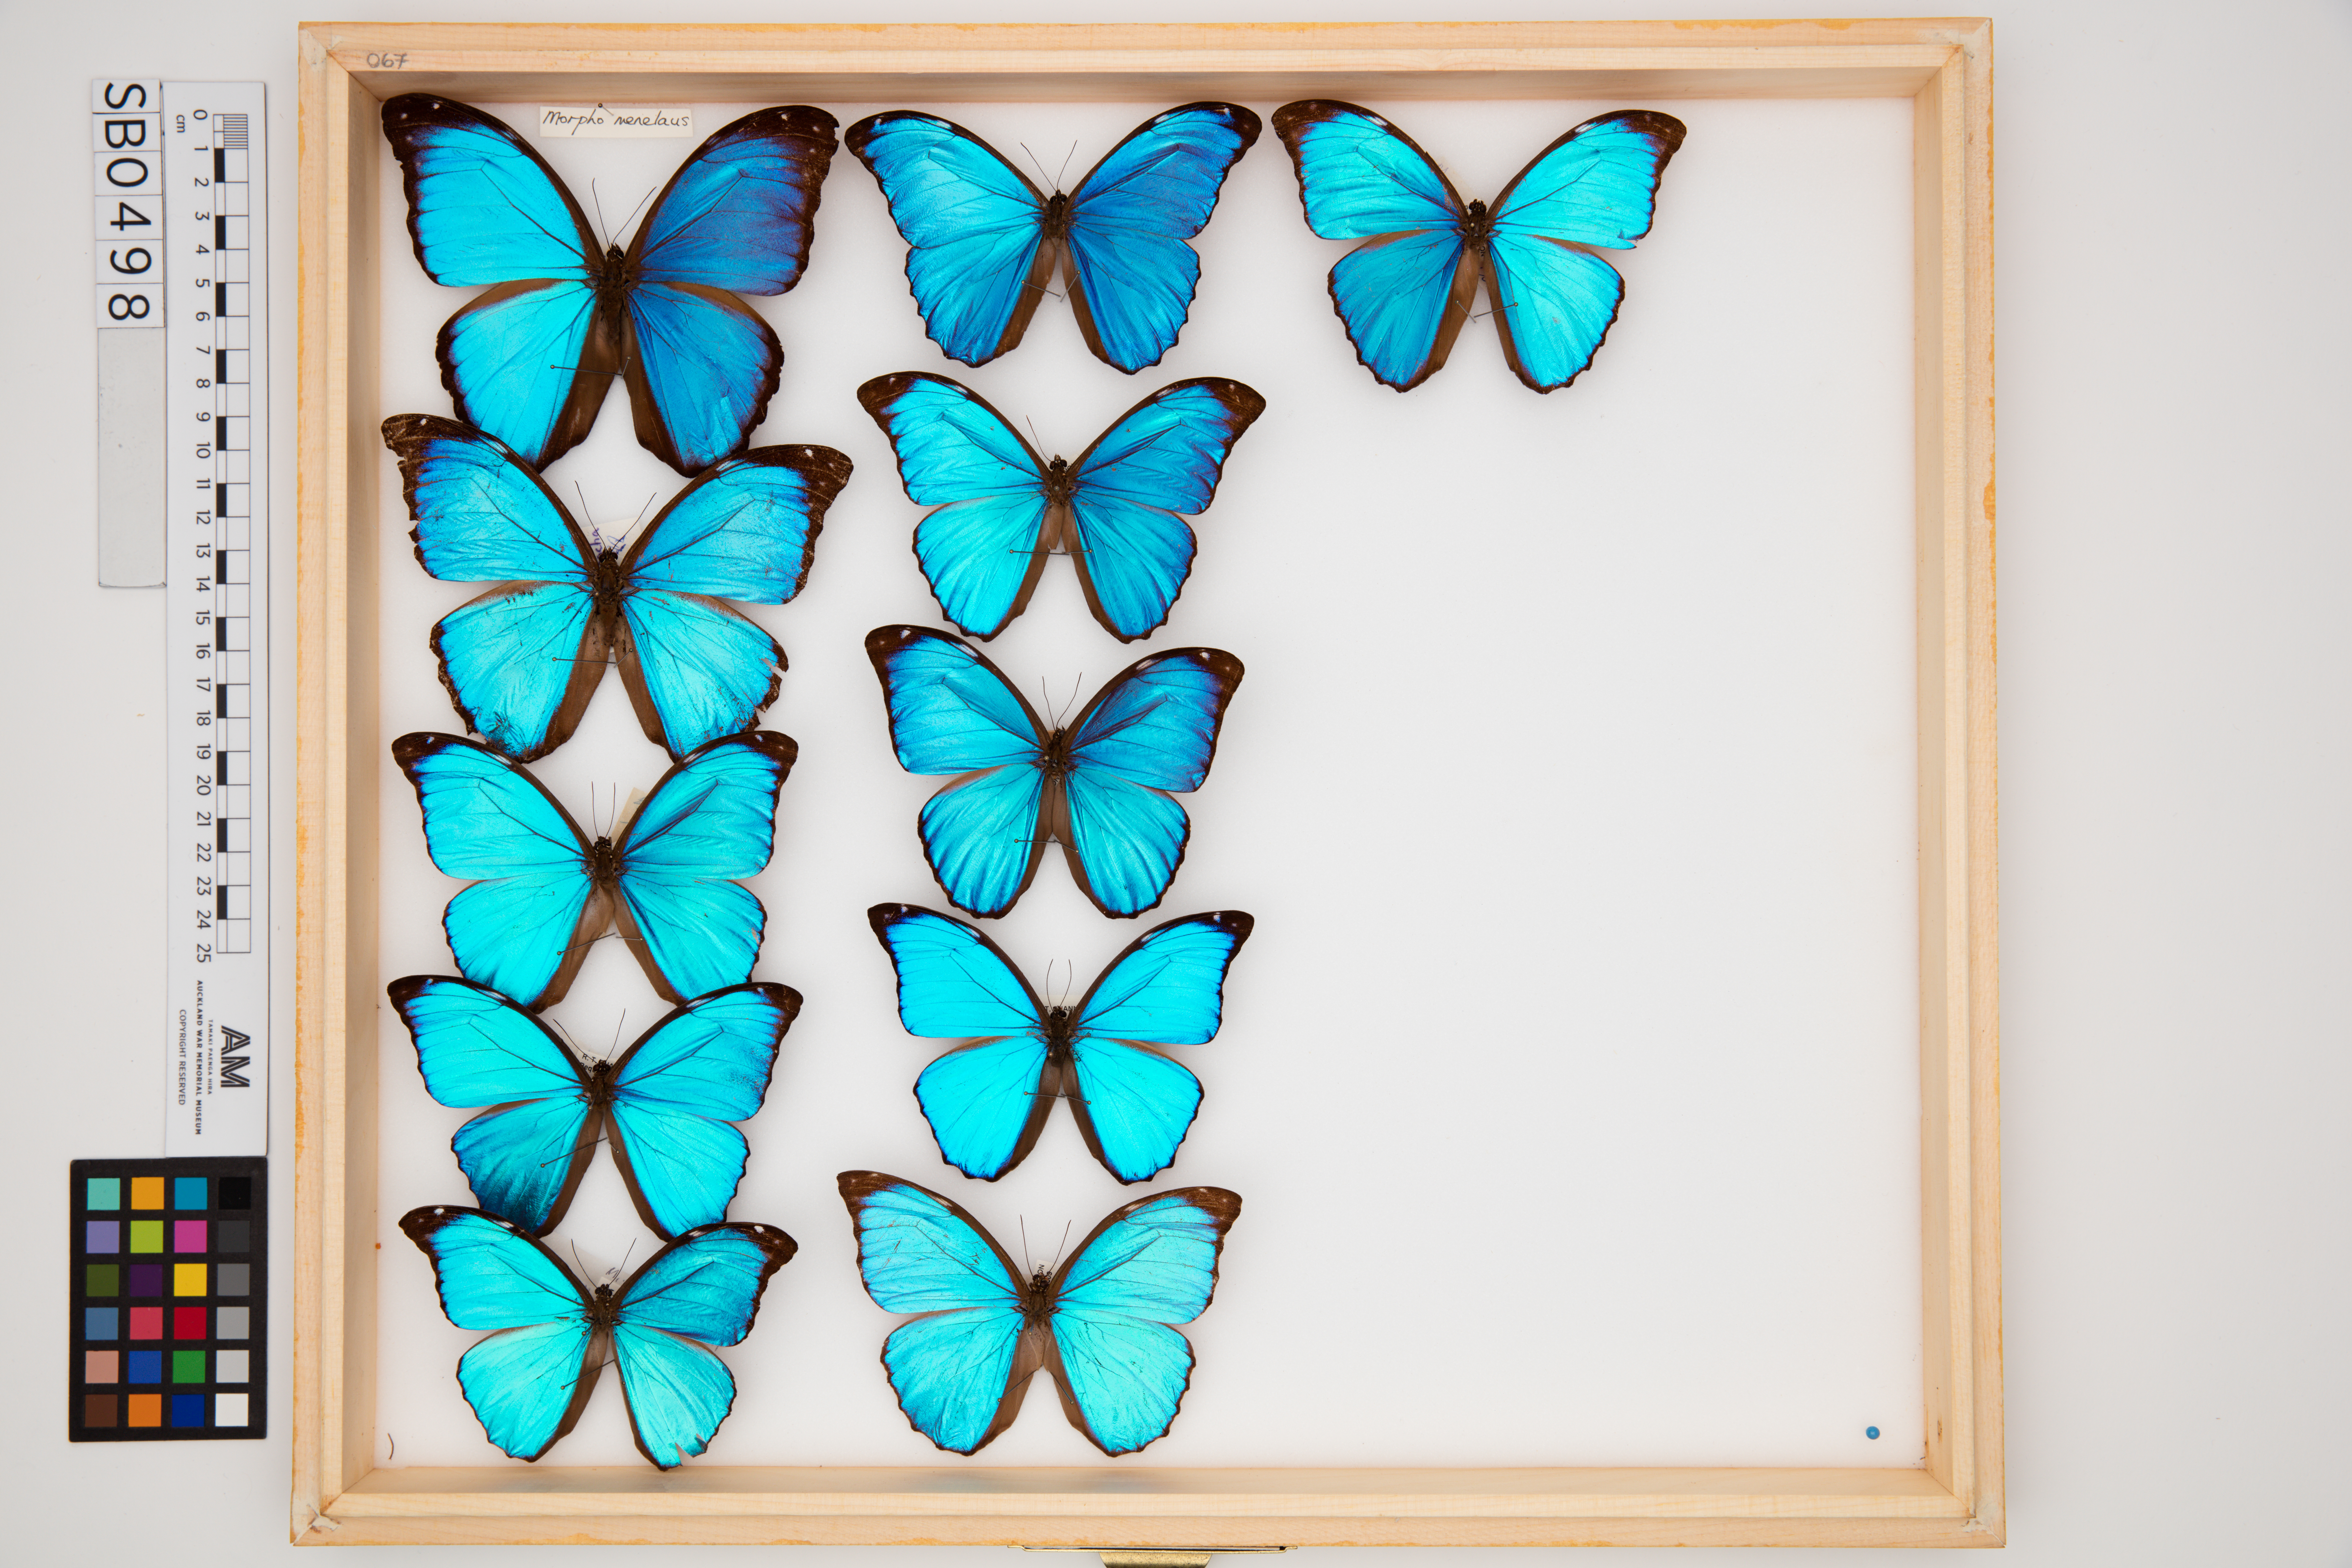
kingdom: Animalia
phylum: Arthropoda
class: Insecta
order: Lepidoptera
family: Nymphalidae
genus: Morpho
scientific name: Morpho menelaus
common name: Menelaus morpho
